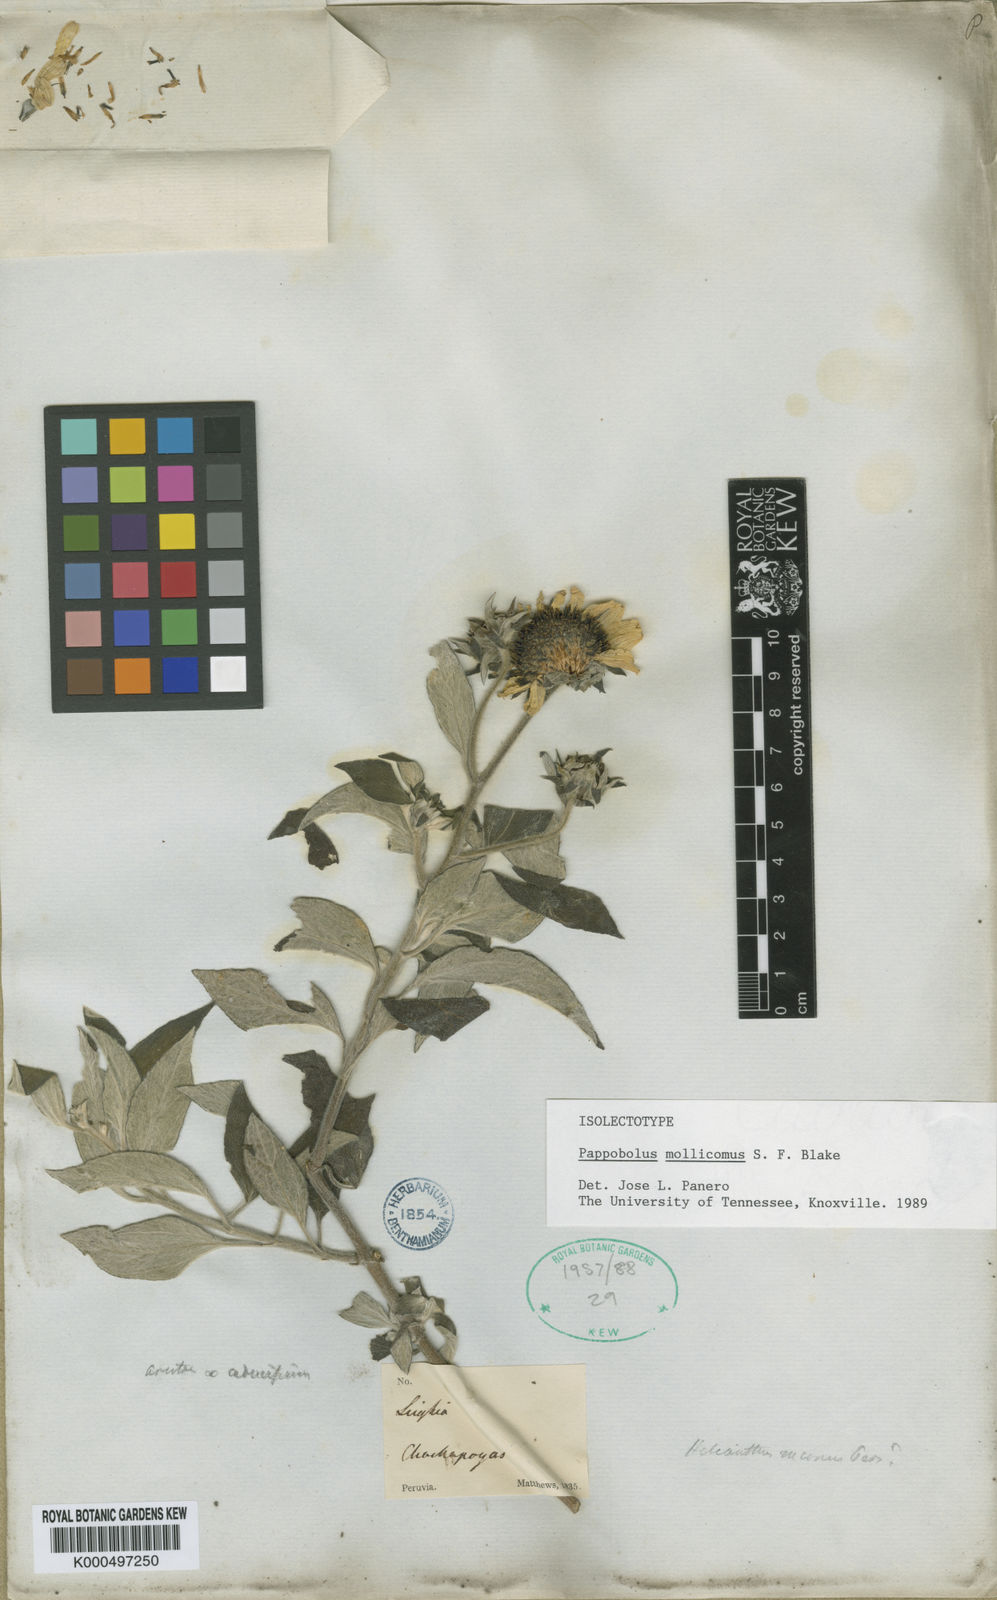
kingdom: Plantae
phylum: Tracheophyta
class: Magnoliopsida
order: Asterales
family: Asteraceae
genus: Pappobolus
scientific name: Pappobolus mollicomus
